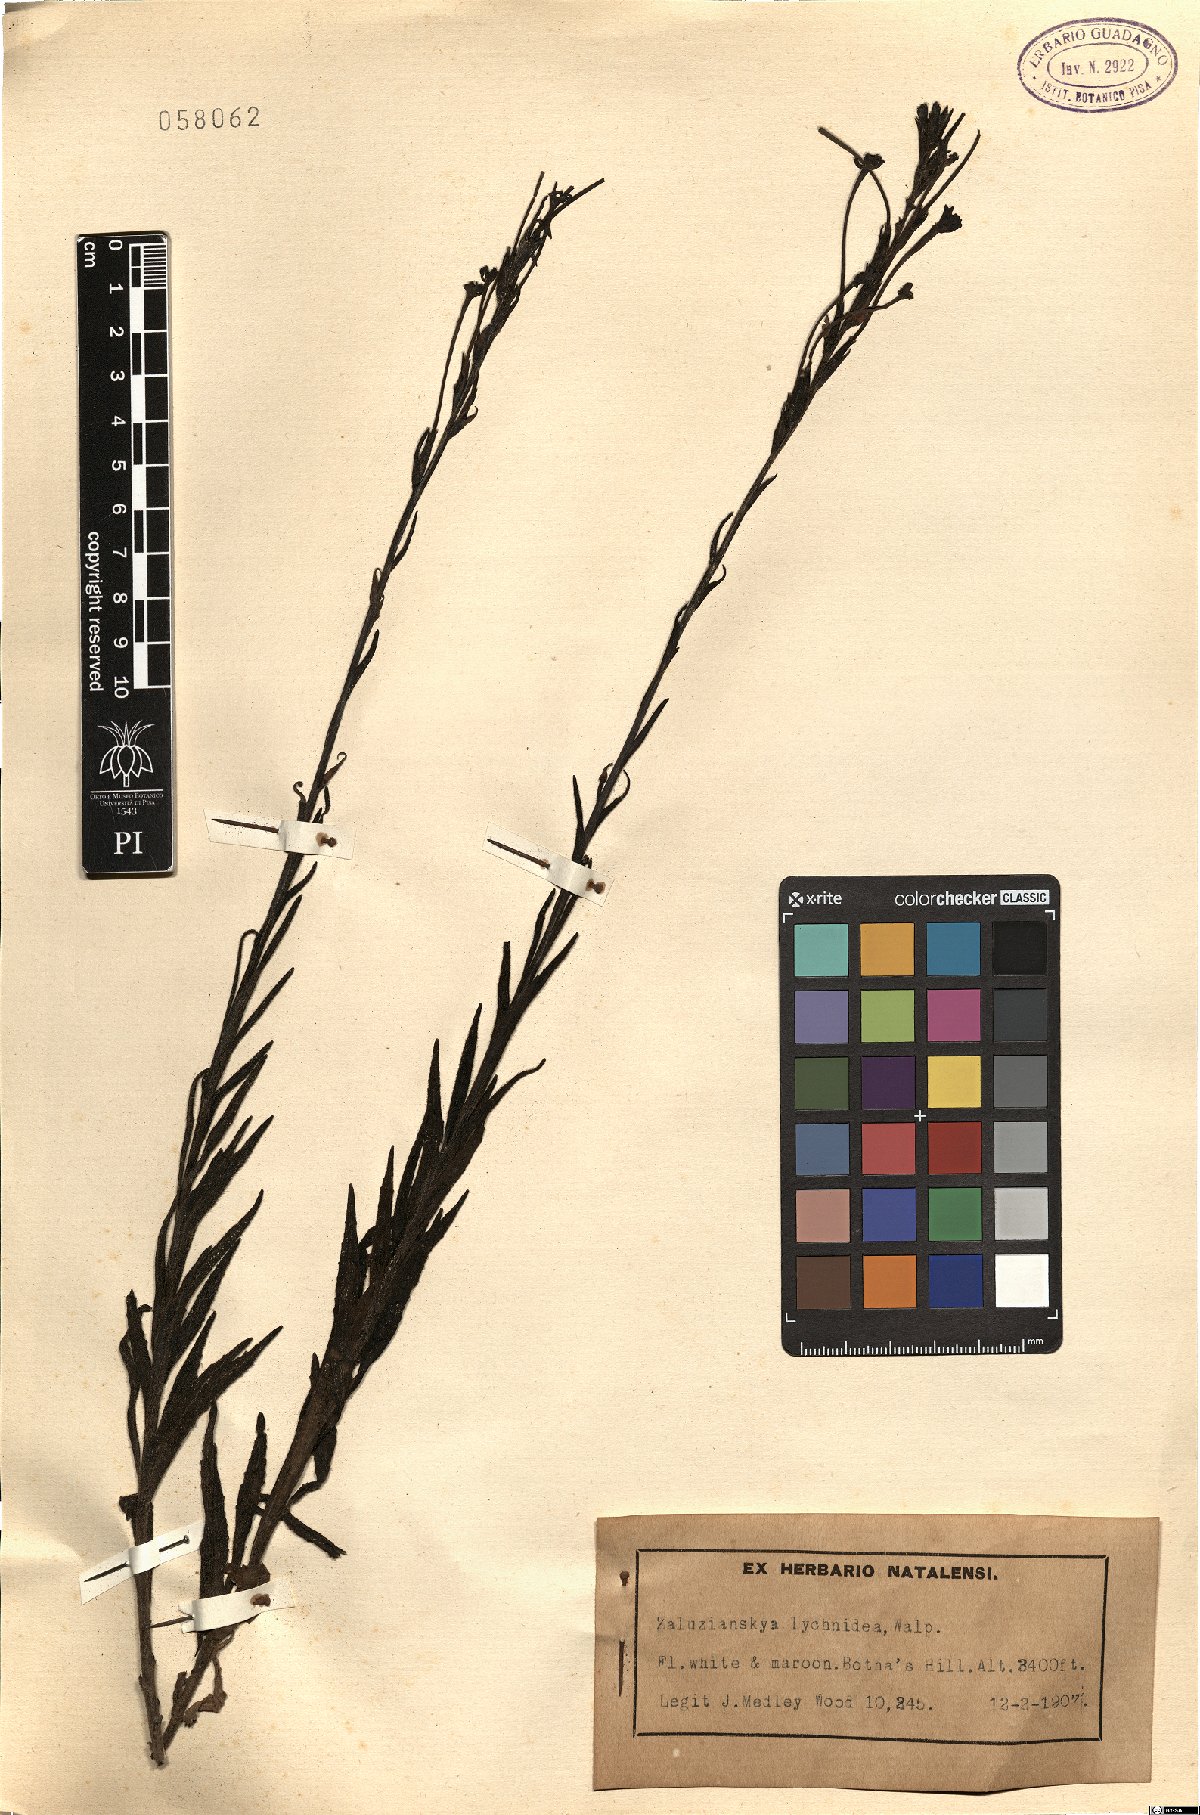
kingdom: Plantae
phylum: Tracheophyta
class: Magnoliopsida
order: Lamiales
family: Scrophulariaceae
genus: Zaluzianskya
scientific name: Zaluzianskya maritima
